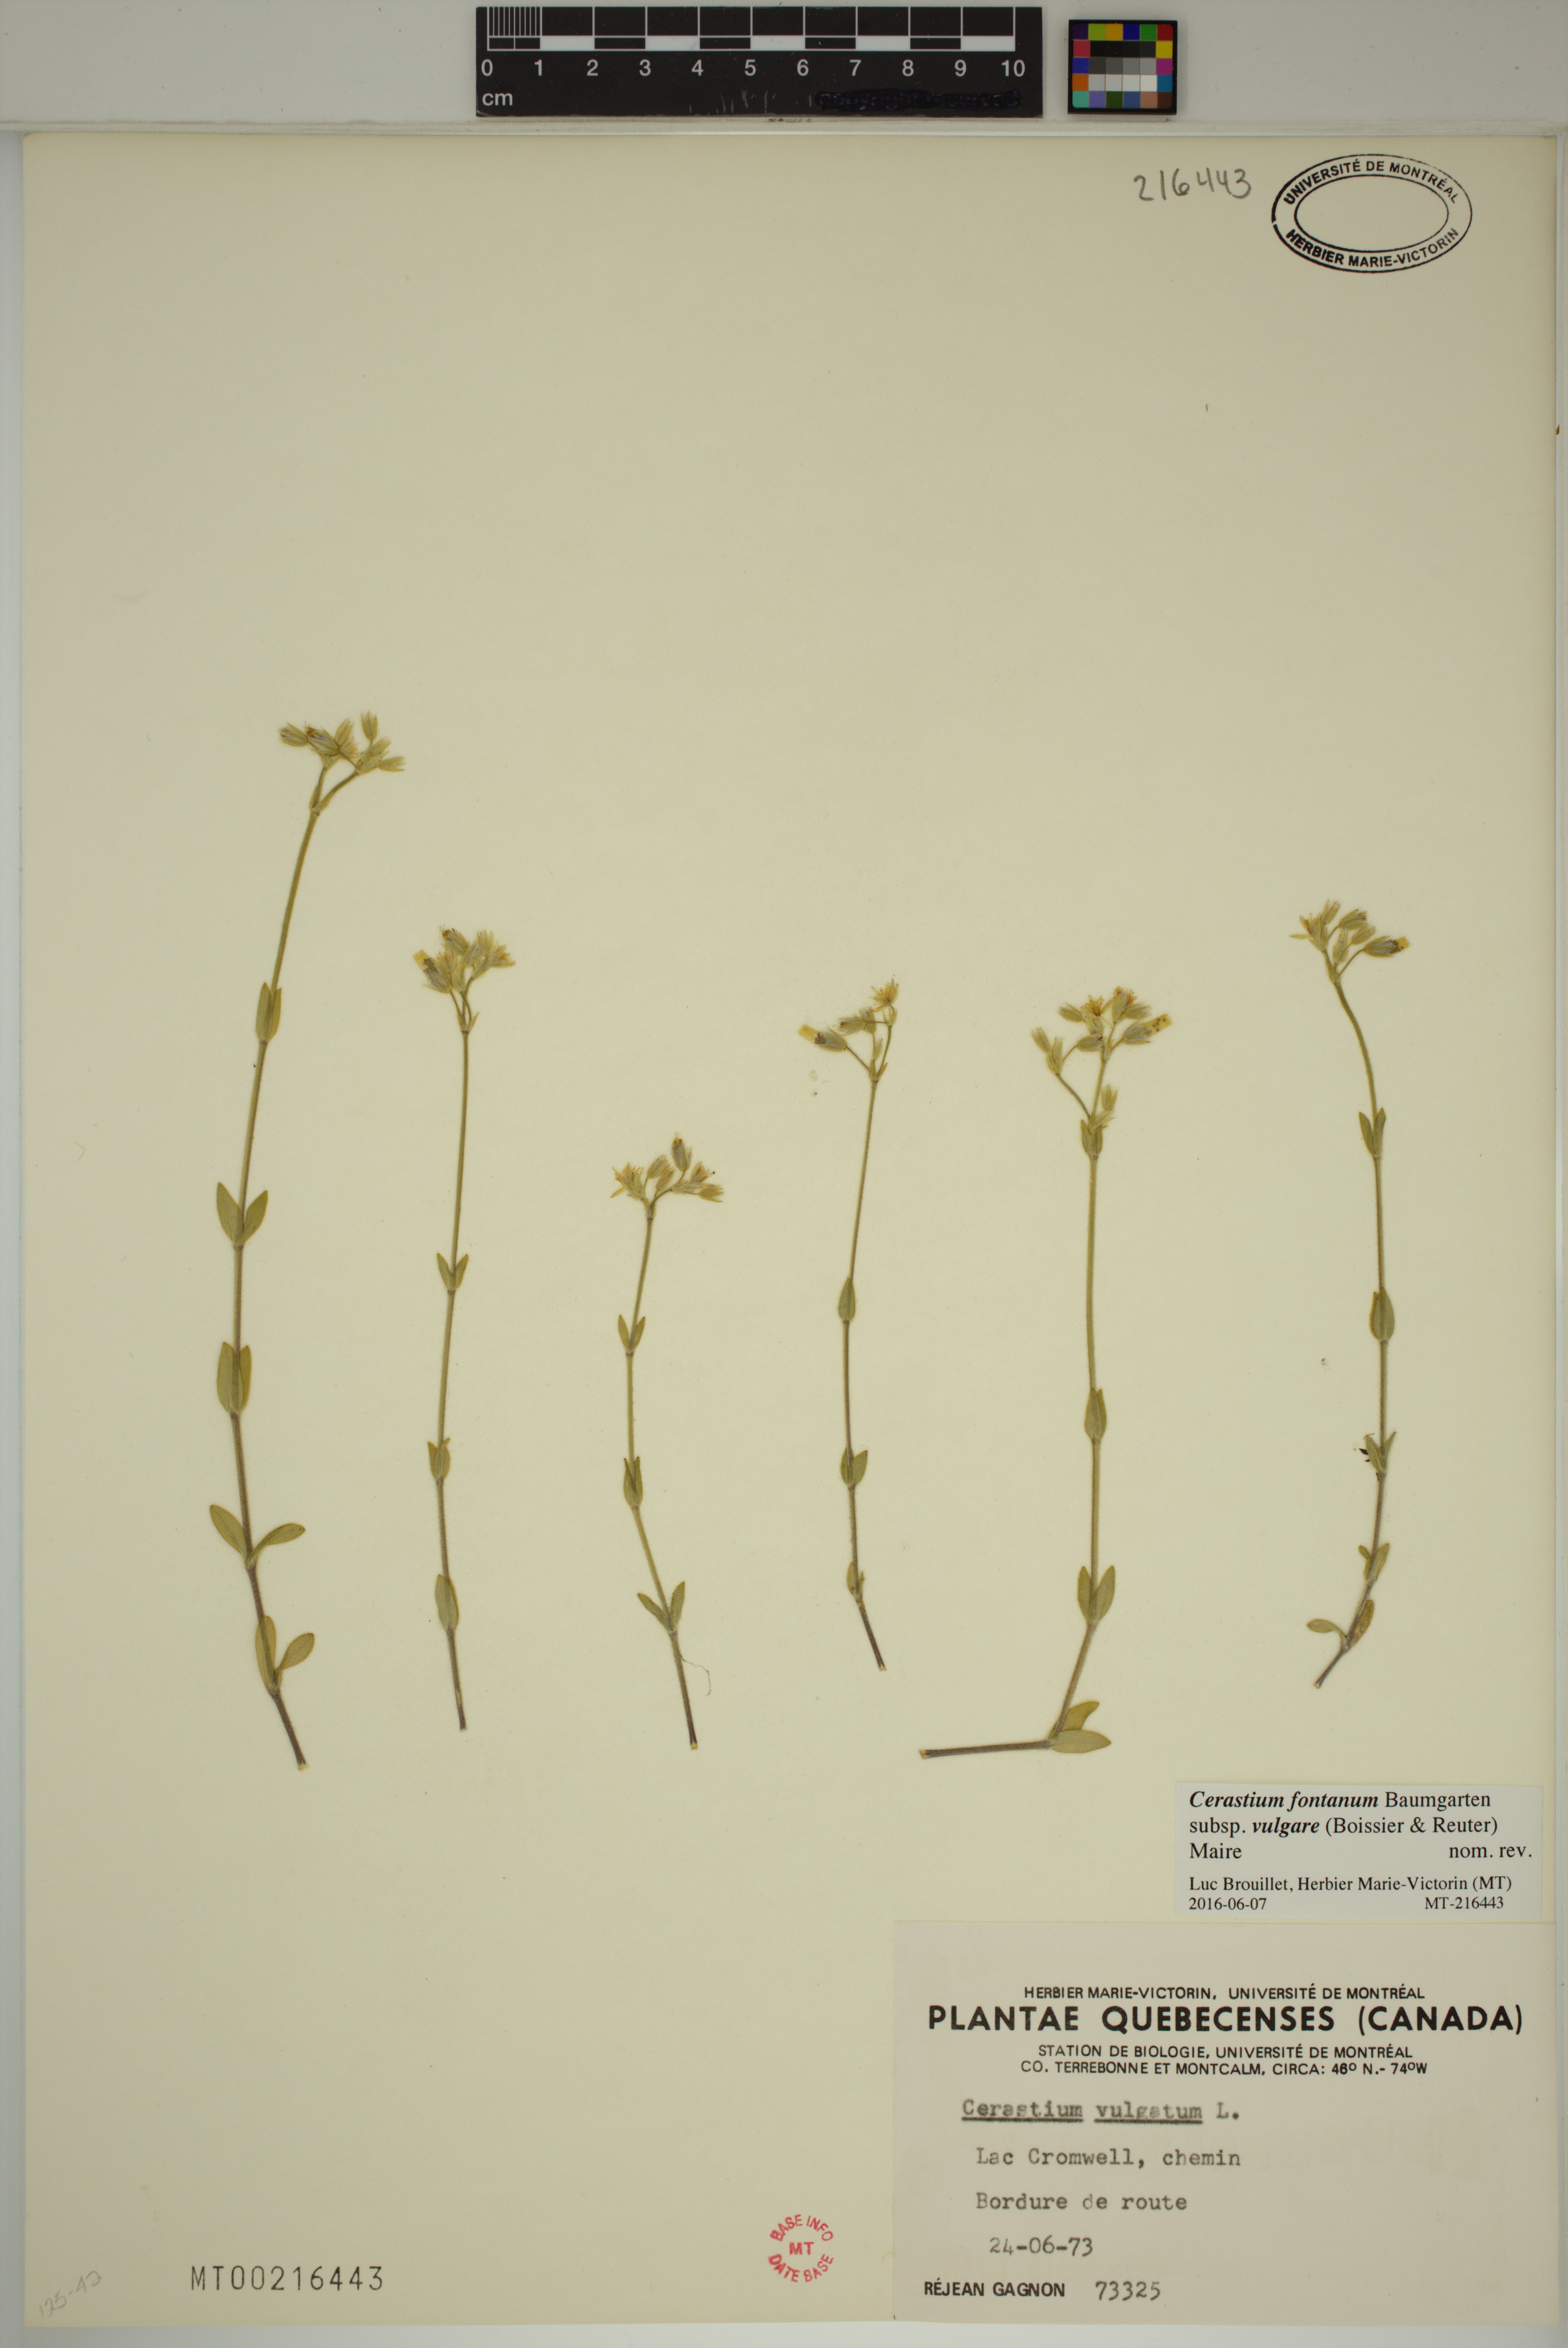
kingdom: Plantae
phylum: Tracheophyta
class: Magnoliopsida
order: Caryophyllales
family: Caryophyllaceae
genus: Cerastium
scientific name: Cerastium holosteoides
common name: Big chickweed
